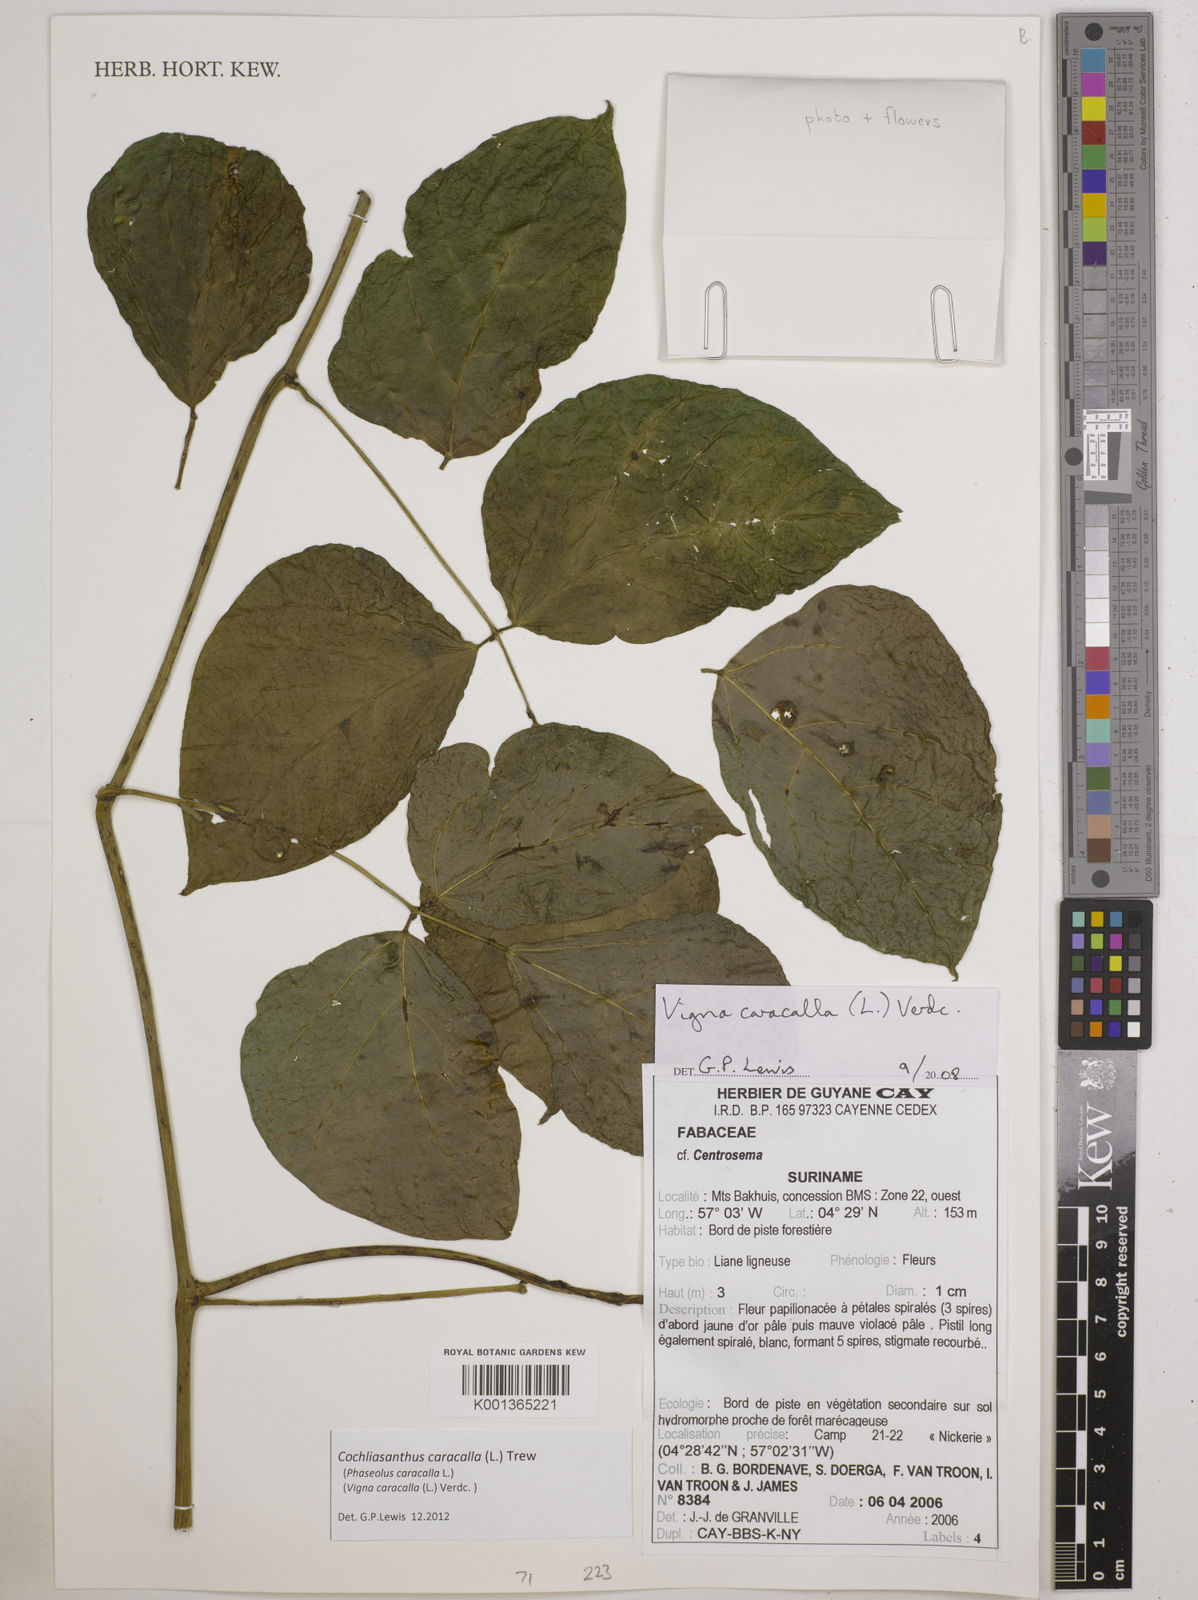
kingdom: Plantae
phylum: Tracheophyta
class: Magnoliopsida
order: Fabales
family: Fabaceae
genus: Cochliasanthus
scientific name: Cochliasanthus caracalla
